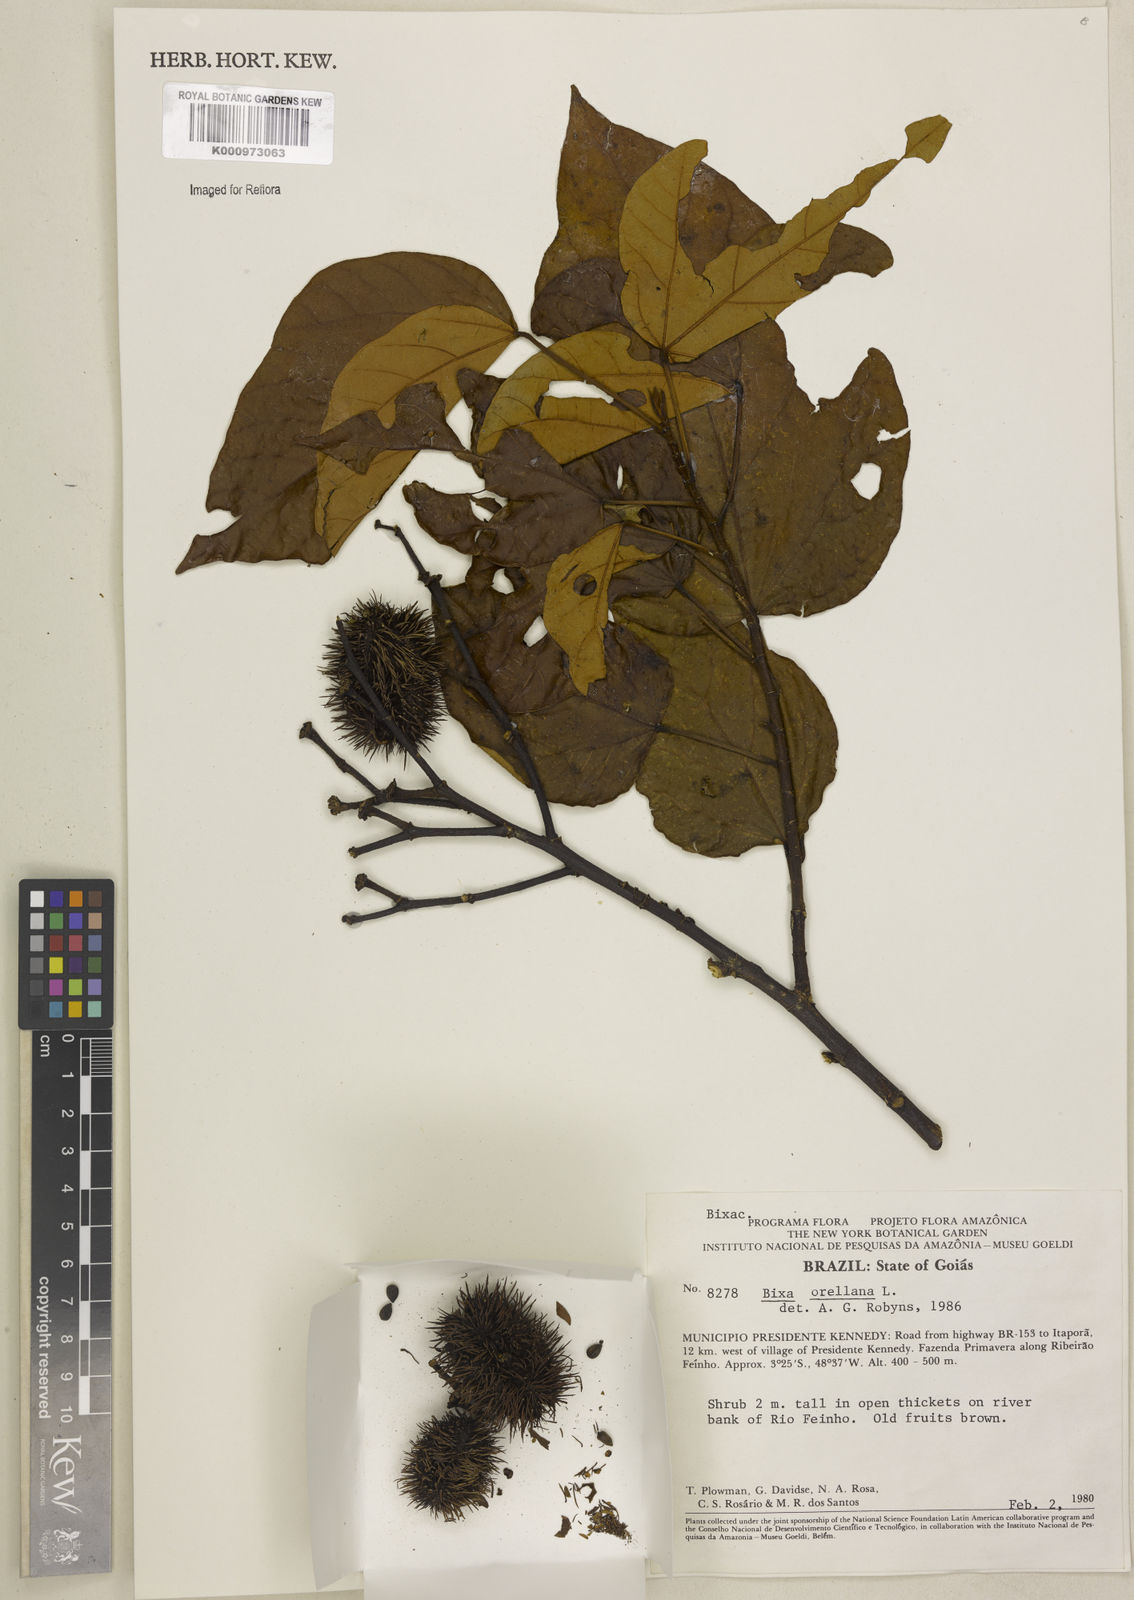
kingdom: Plantae
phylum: Tracheophyta
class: Magnoliopsida
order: Malvales
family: Bixaceae
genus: Bixa
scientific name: Bixa orellana
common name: Lipsticktree
